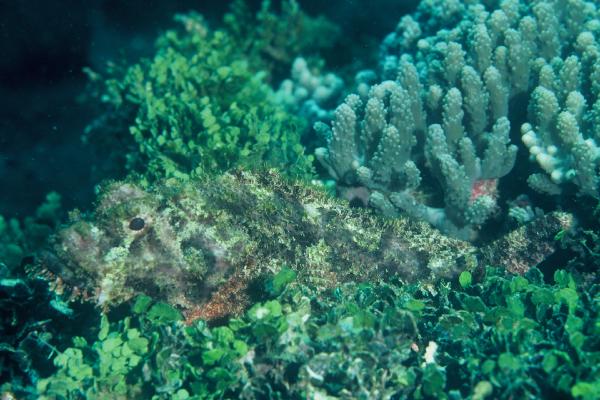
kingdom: Animalia
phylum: Chordata
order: Scorpaeniformes
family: Scorpaenidae
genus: Scorpaenopsis
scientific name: Scorpaenopsis
